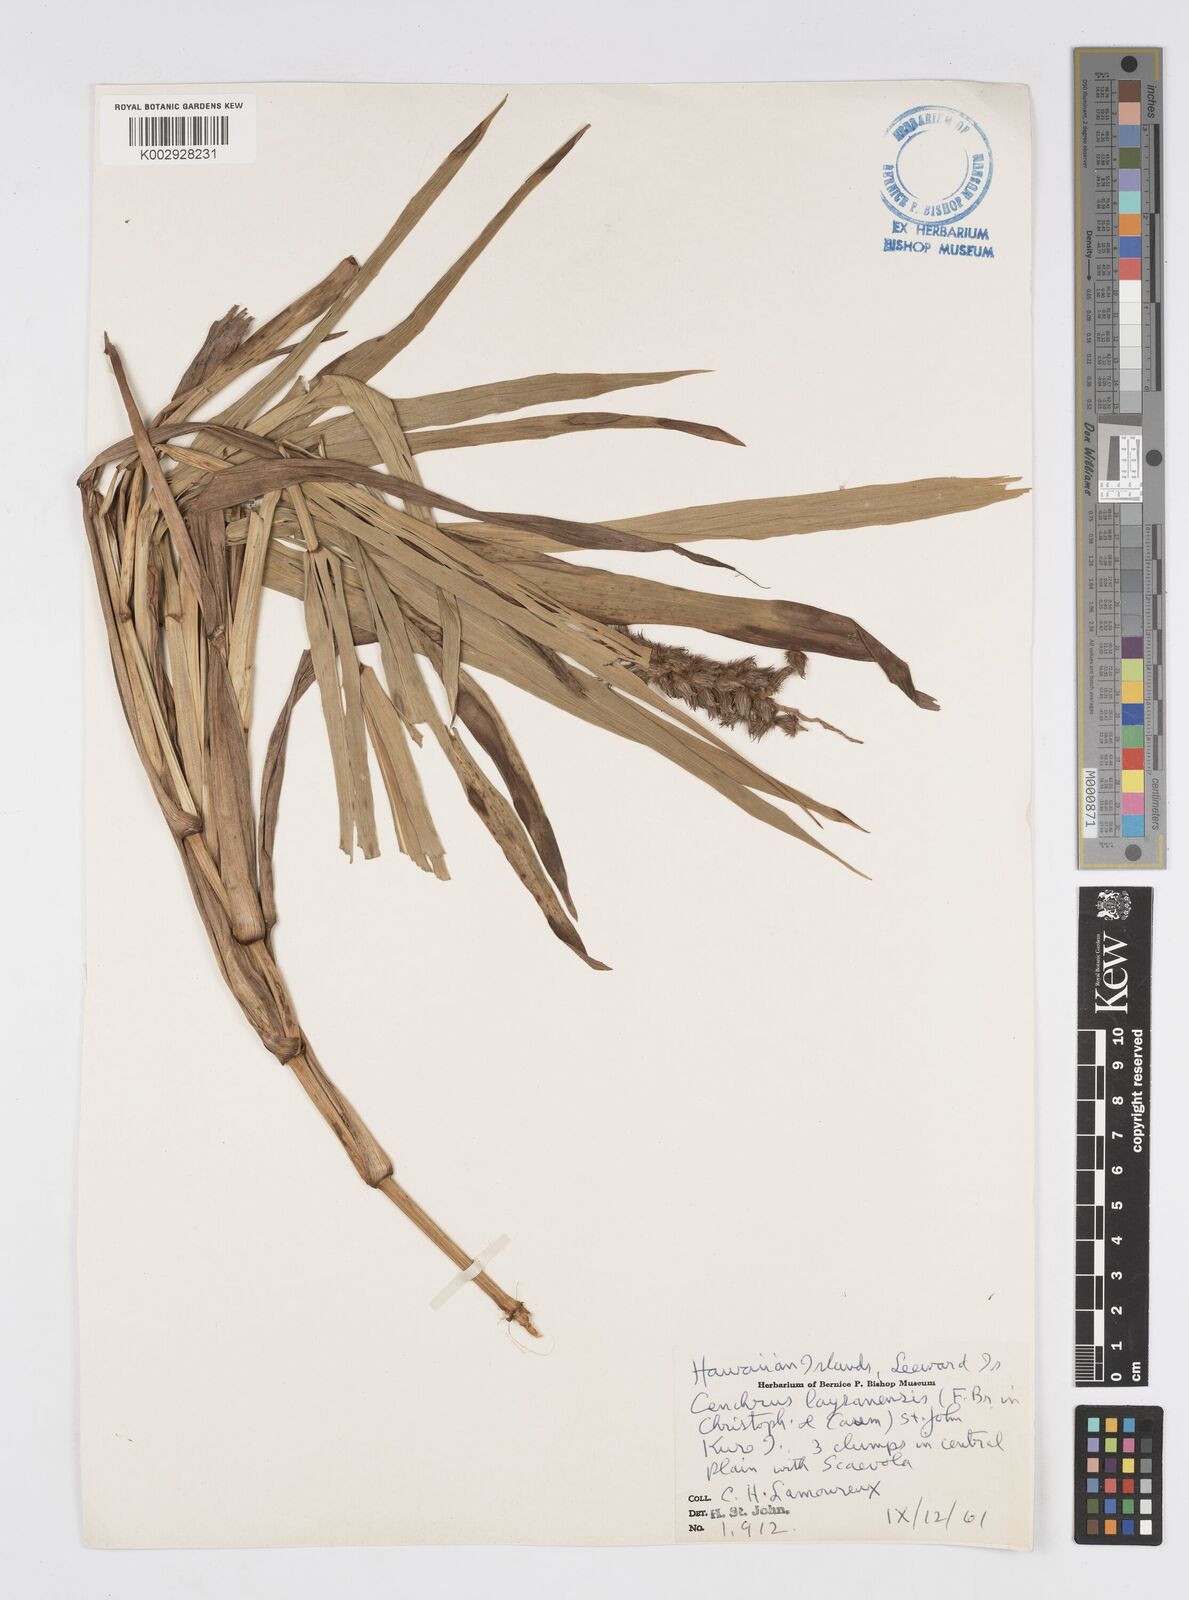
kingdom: Plantae
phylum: Tracheophyta
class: Liliopsida
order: Poales
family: Poaceae
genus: Cenchrus
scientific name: Cenchrus agrimonioides
